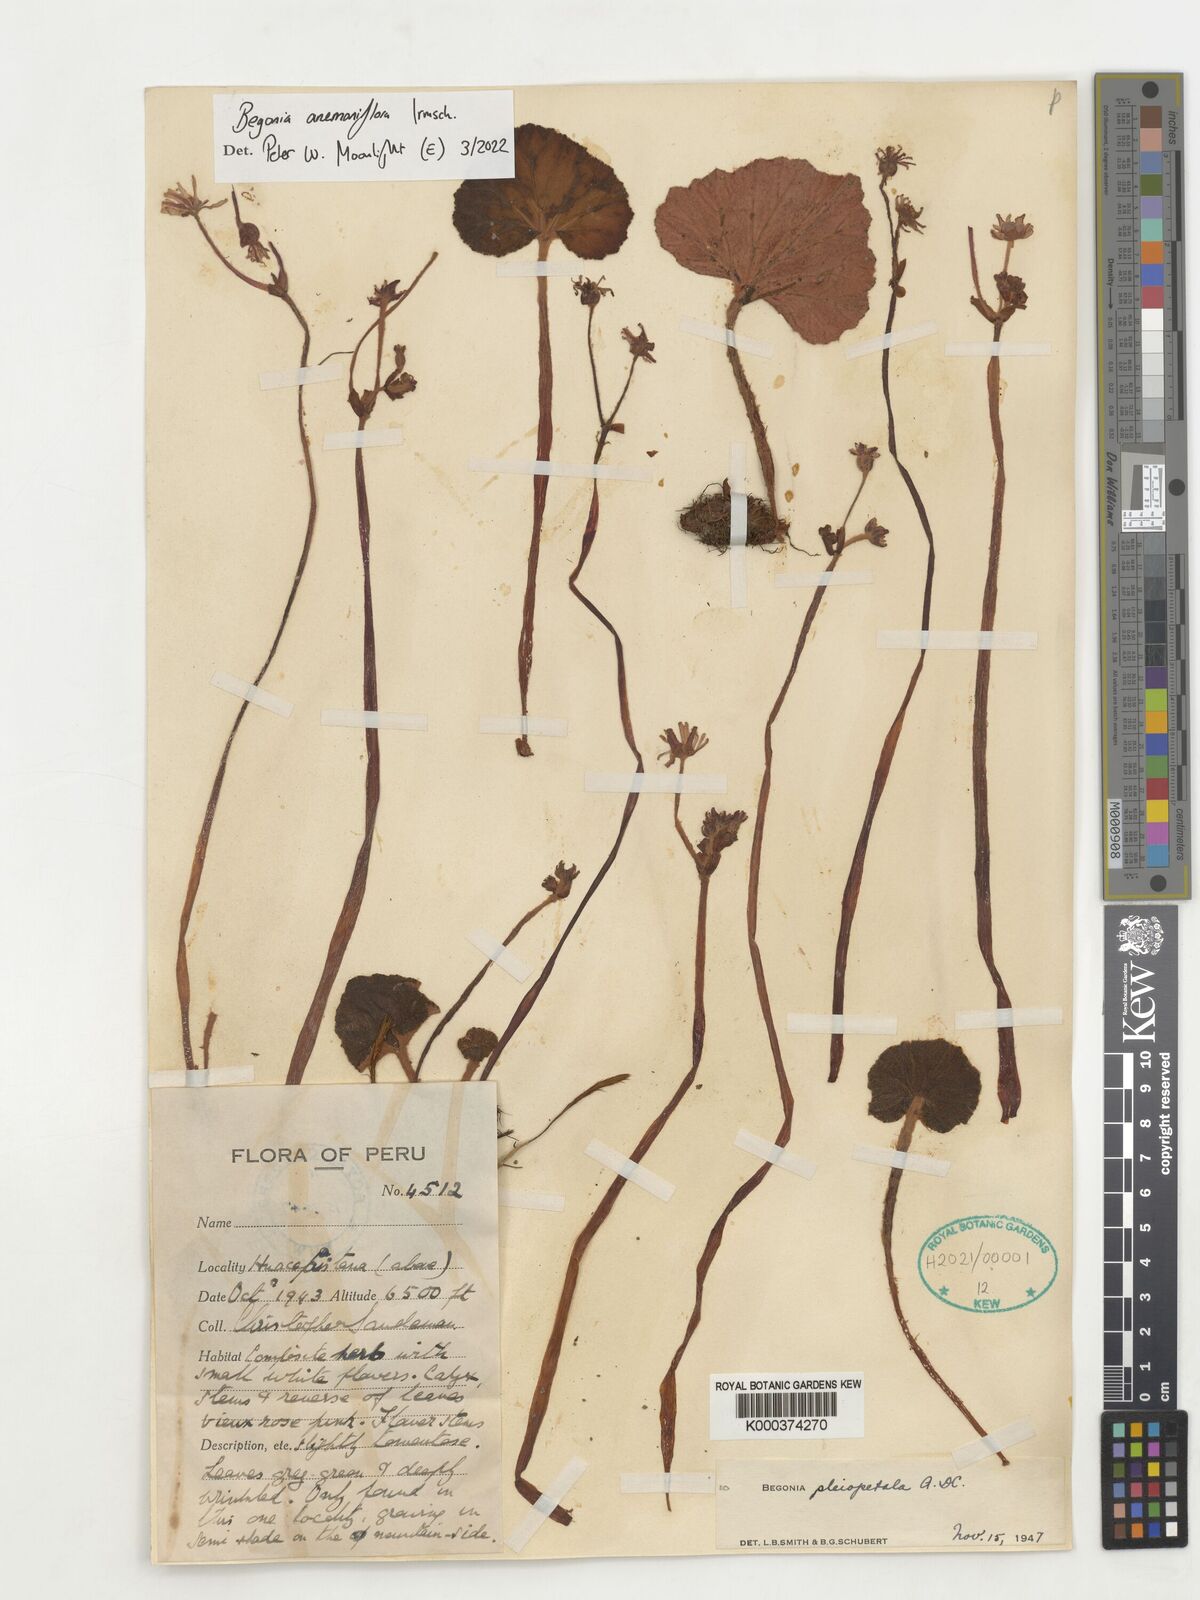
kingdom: Plantae
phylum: Tracheophyta
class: Magnoliopsida
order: Cucurbitales
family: Begoniaceae
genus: Begonia
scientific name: Begonia anemoniflora
